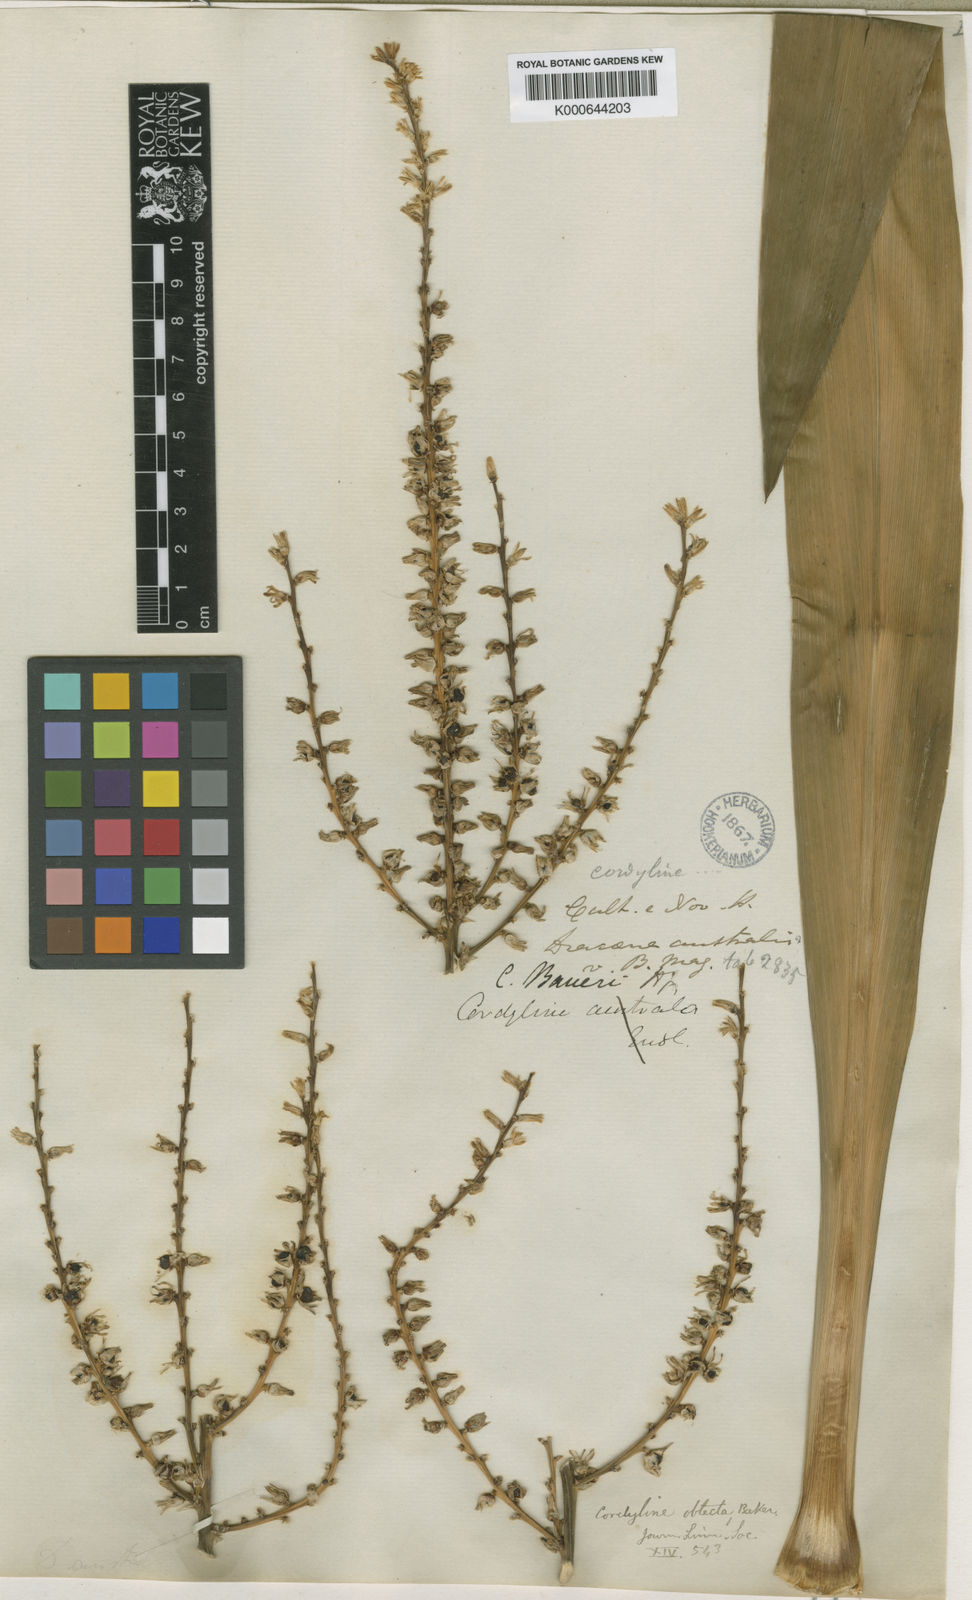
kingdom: Plantae
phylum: Tracheophyta
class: Liliopsida
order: Asparagales
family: Asparagaceae
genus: Cordyline
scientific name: Cordyline obtecta
